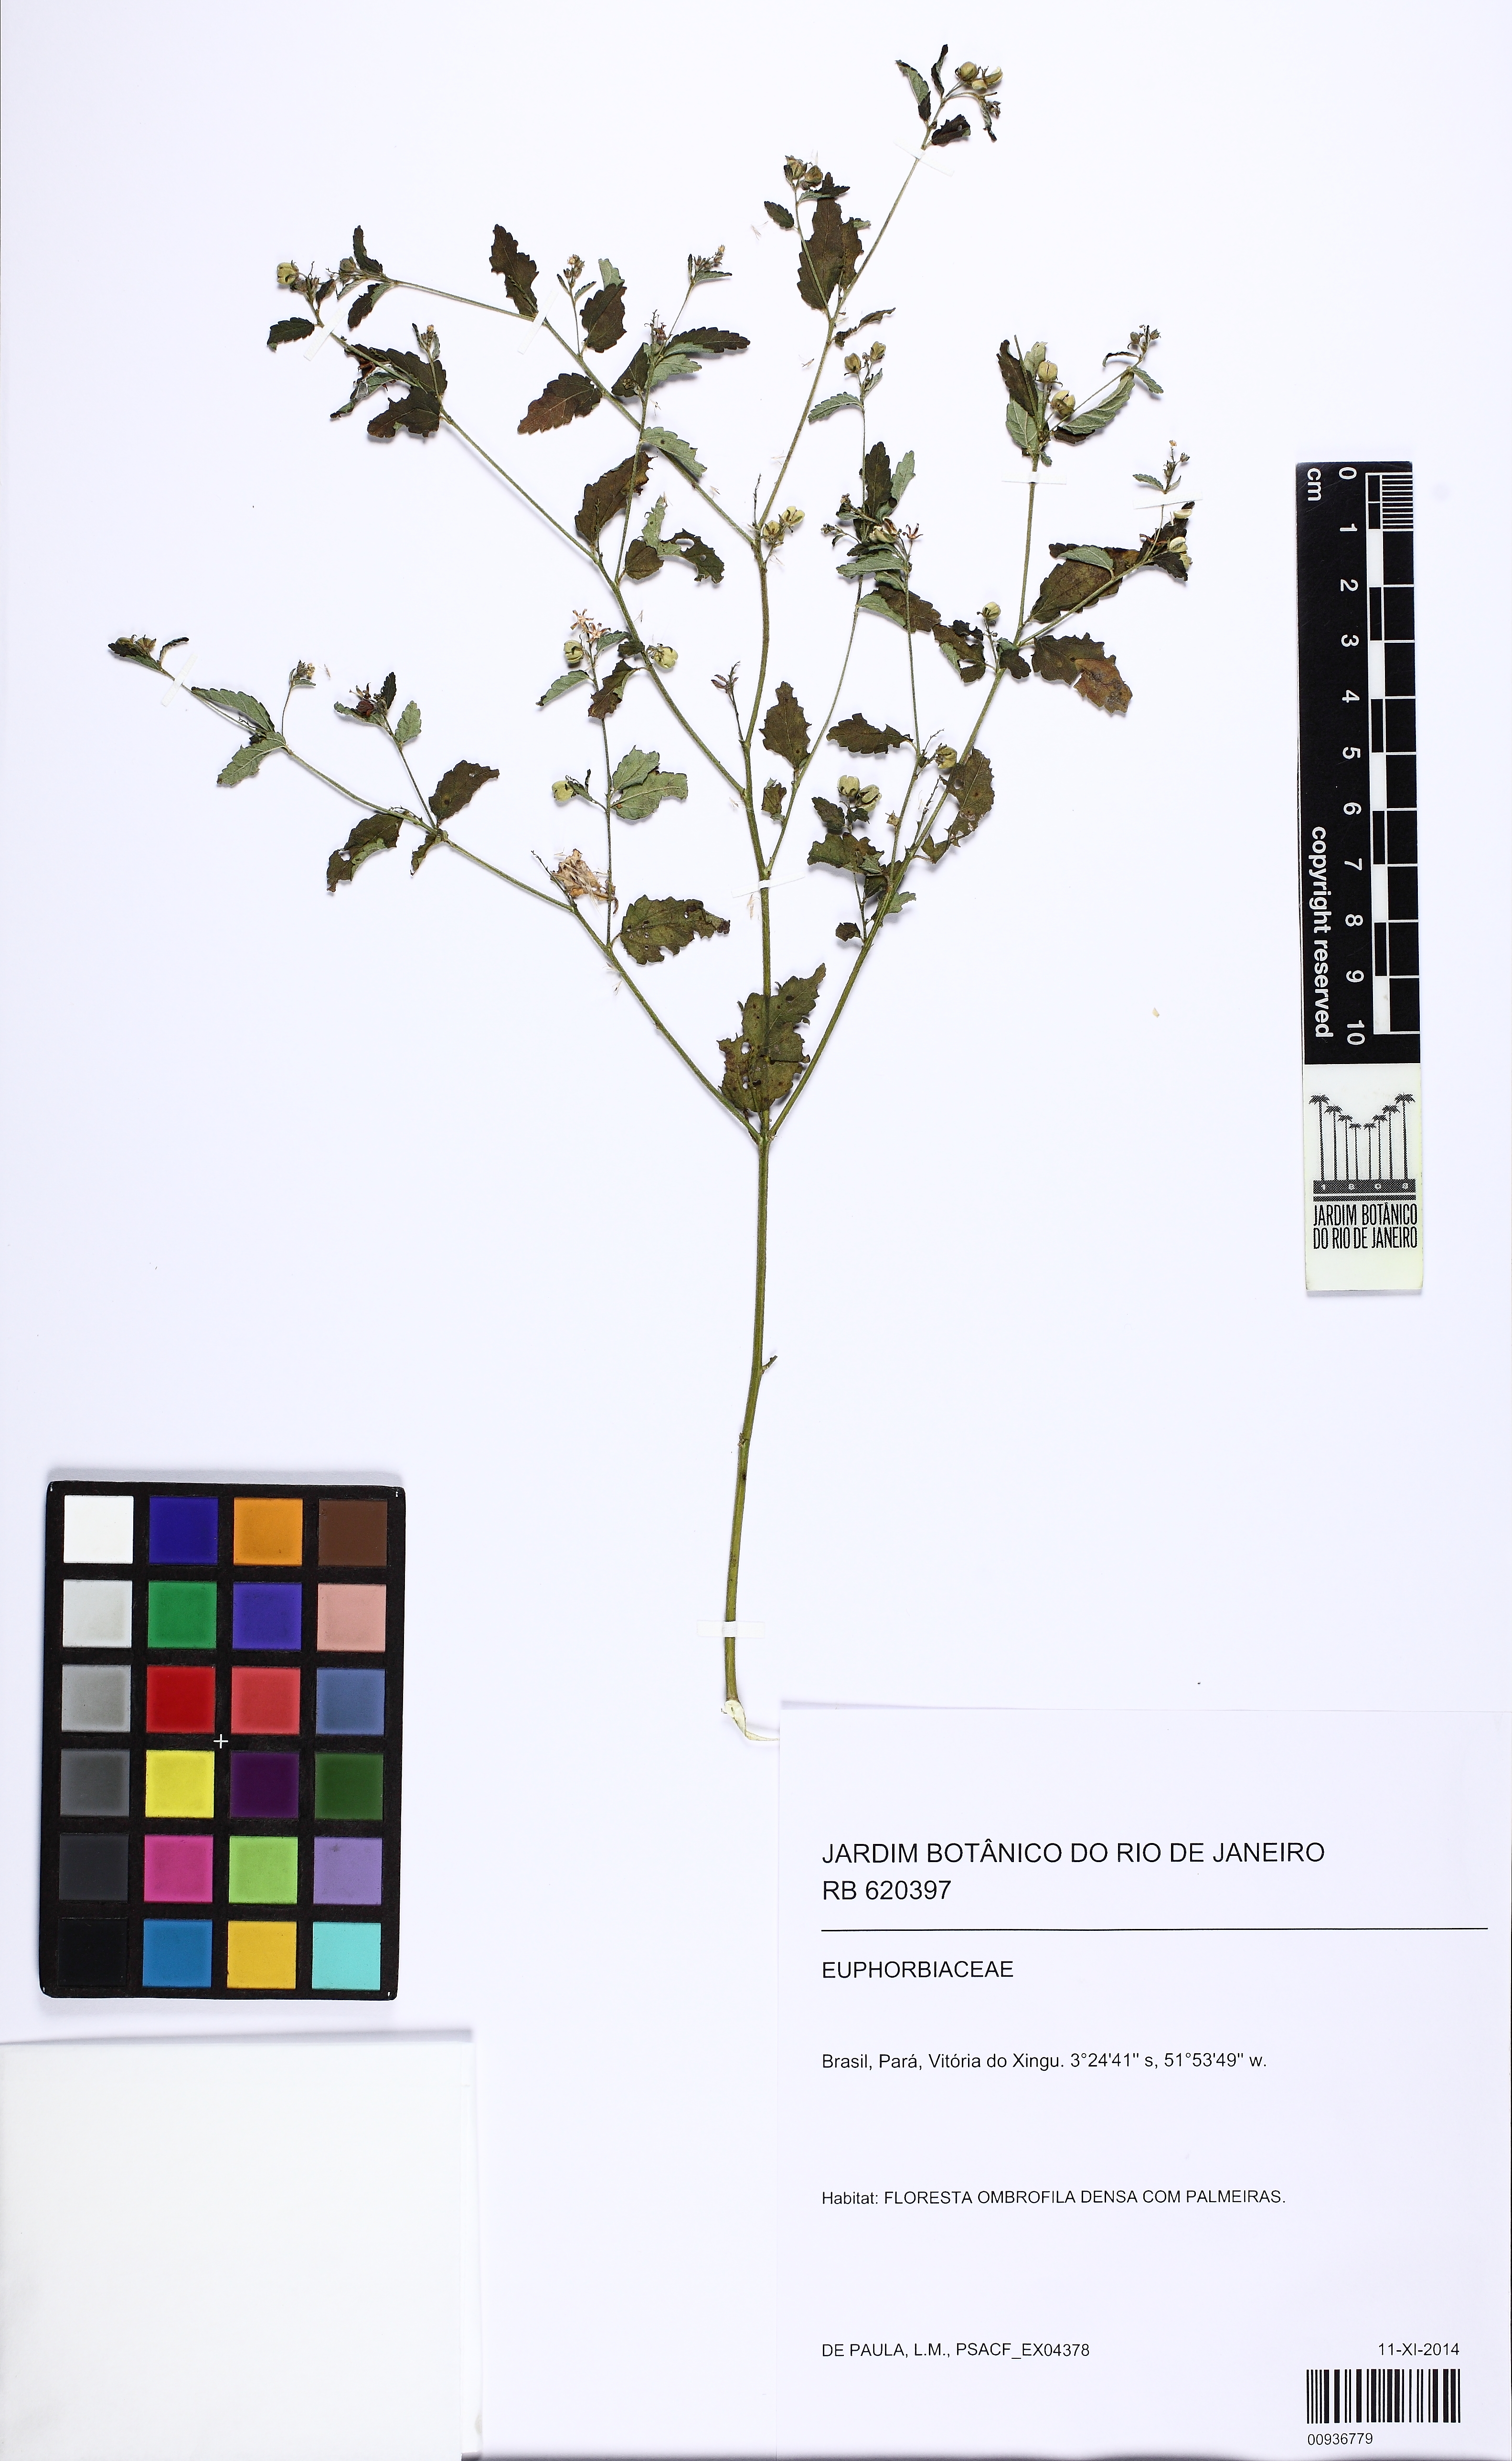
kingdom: Plantae
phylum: Tracheophyta
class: Magnoliopsida
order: Malpighiales
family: Euphorbiaceae
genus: Croton
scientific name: Croton trinitatis
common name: Roadside croton
